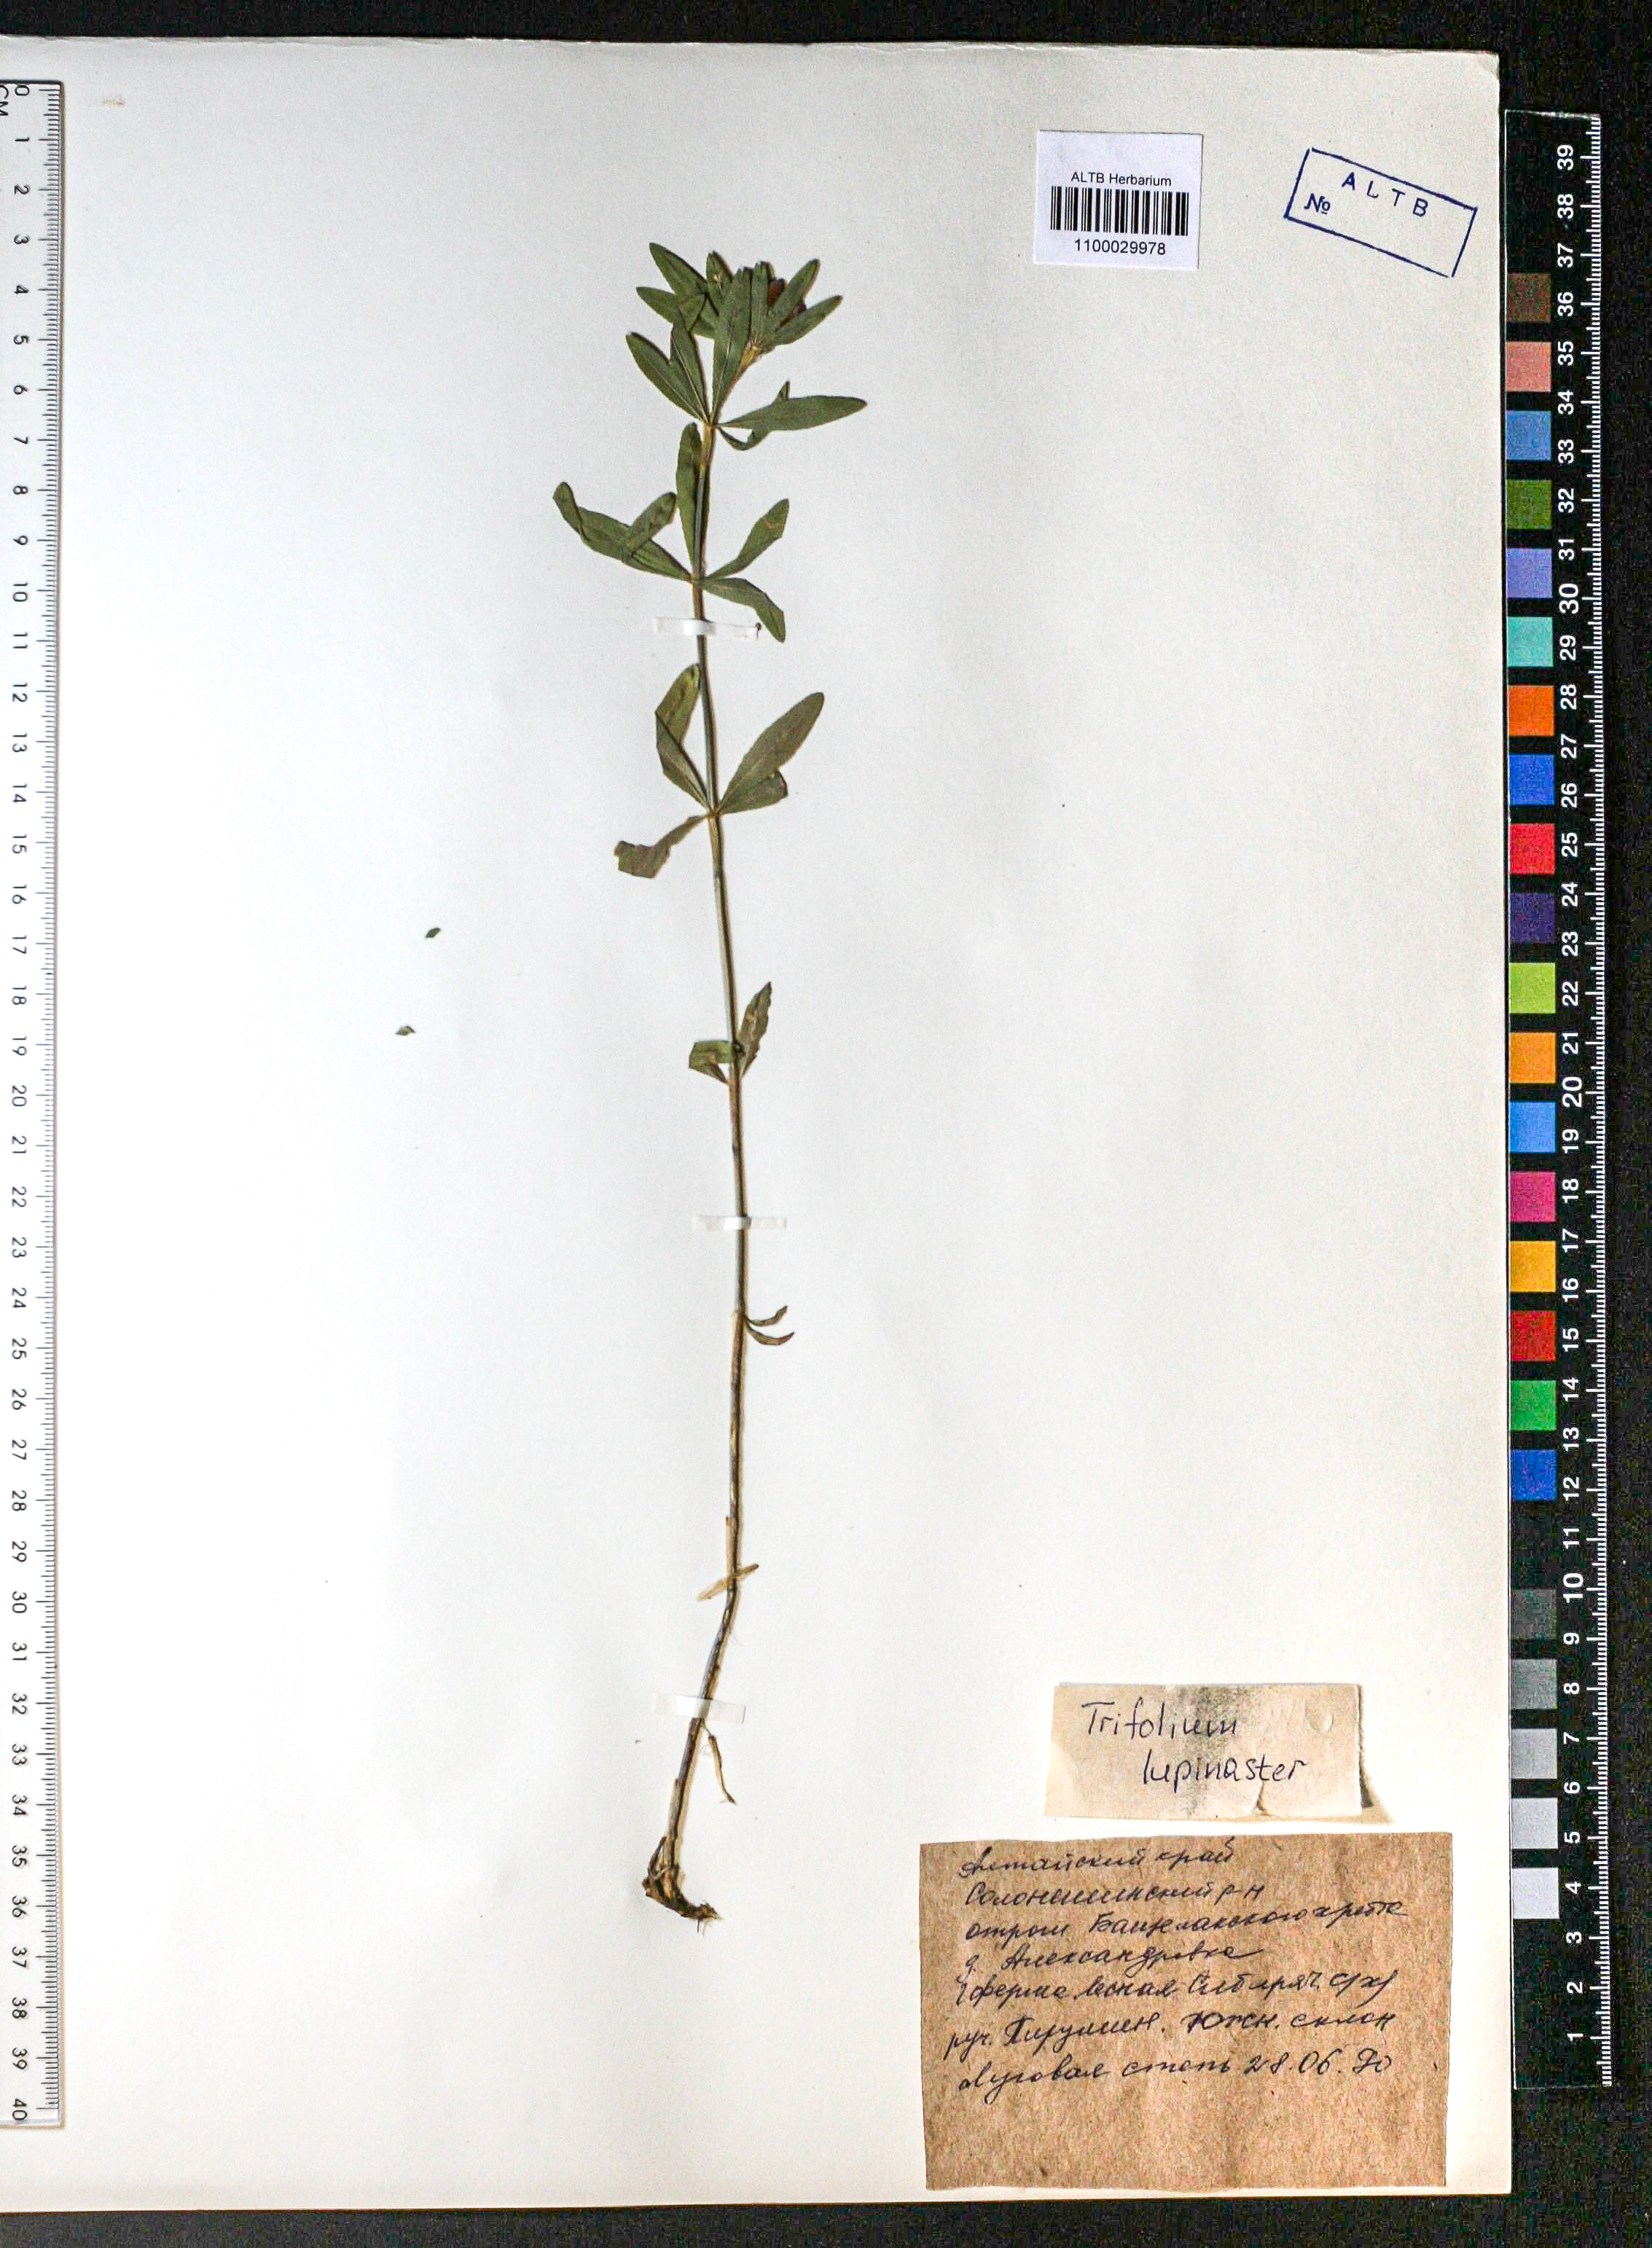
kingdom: Plantae
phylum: Tracheophyta
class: Magnoliopsida
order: Fabales
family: Fabaceae
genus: Trifolium
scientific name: Trifolium lupinaster
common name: Lupine clover
